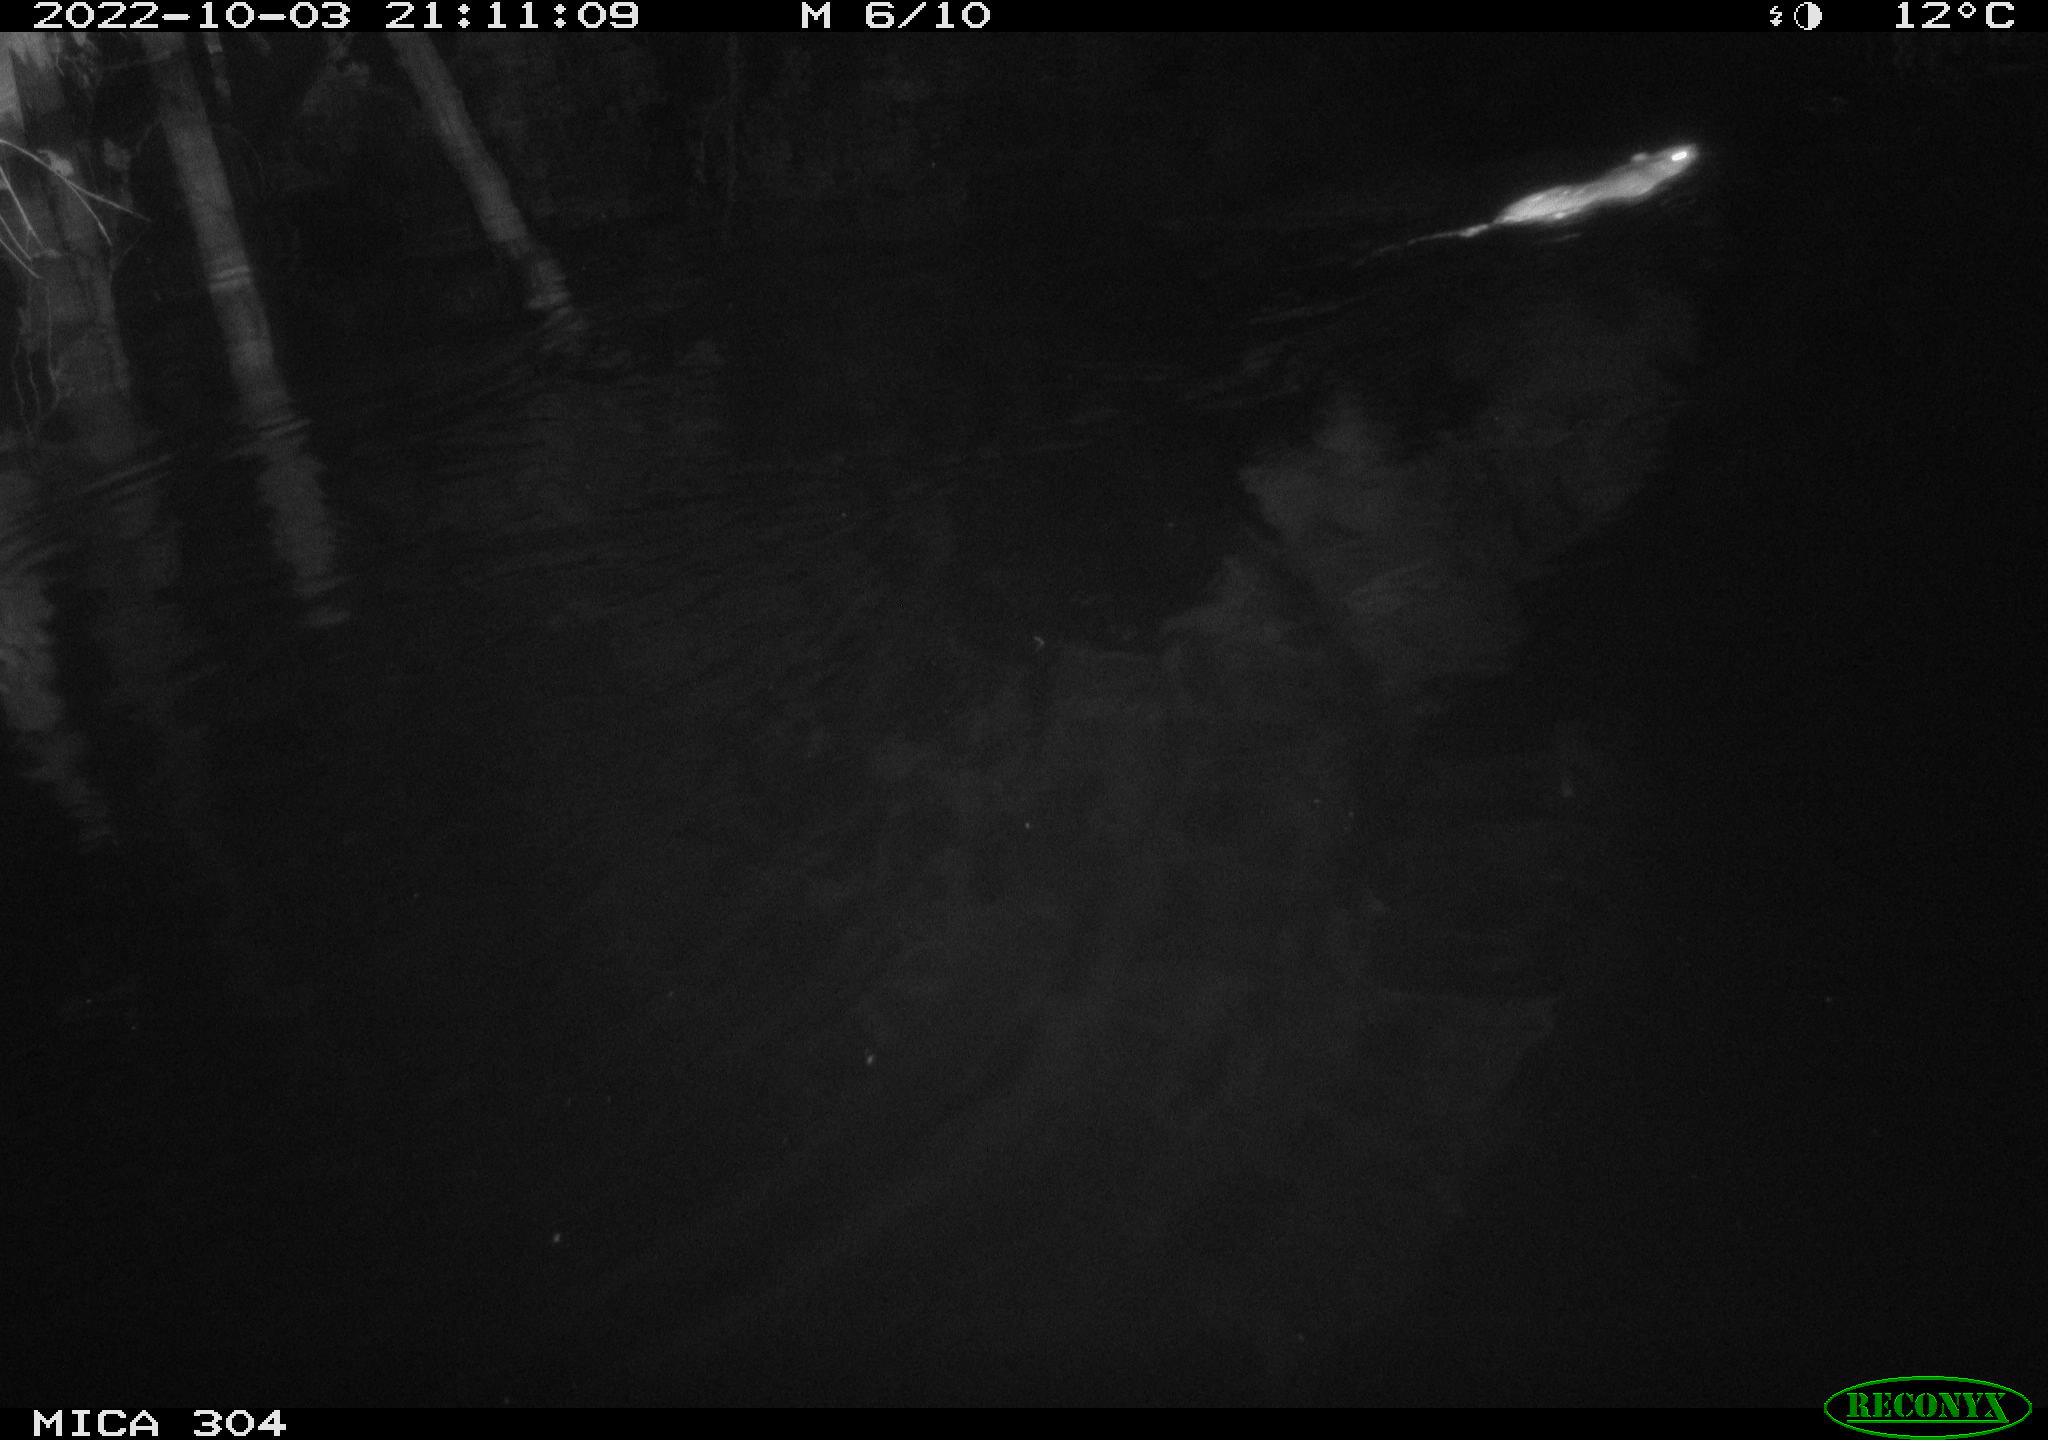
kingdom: Animalia
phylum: Chordata
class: Mammalia
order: Rodentia
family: Muridae
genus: Rattus
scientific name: Rattus norvegicus
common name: Brown rat
